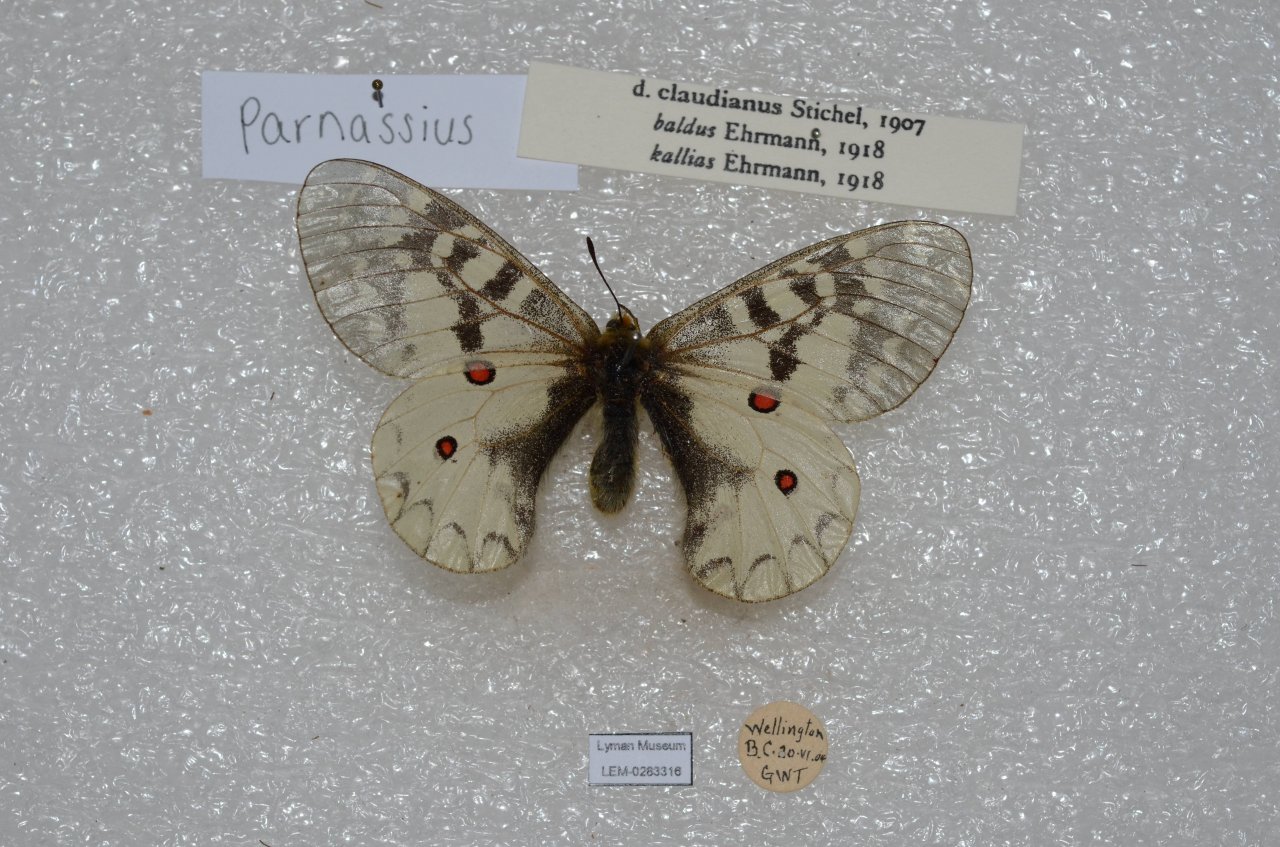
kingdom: Animalia
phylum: Arthropoda
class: Insecta
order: Lepidoptera
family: Papilionidae
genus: Parnassius
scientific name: Parnassius clodius
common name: Clodius Parnassian
